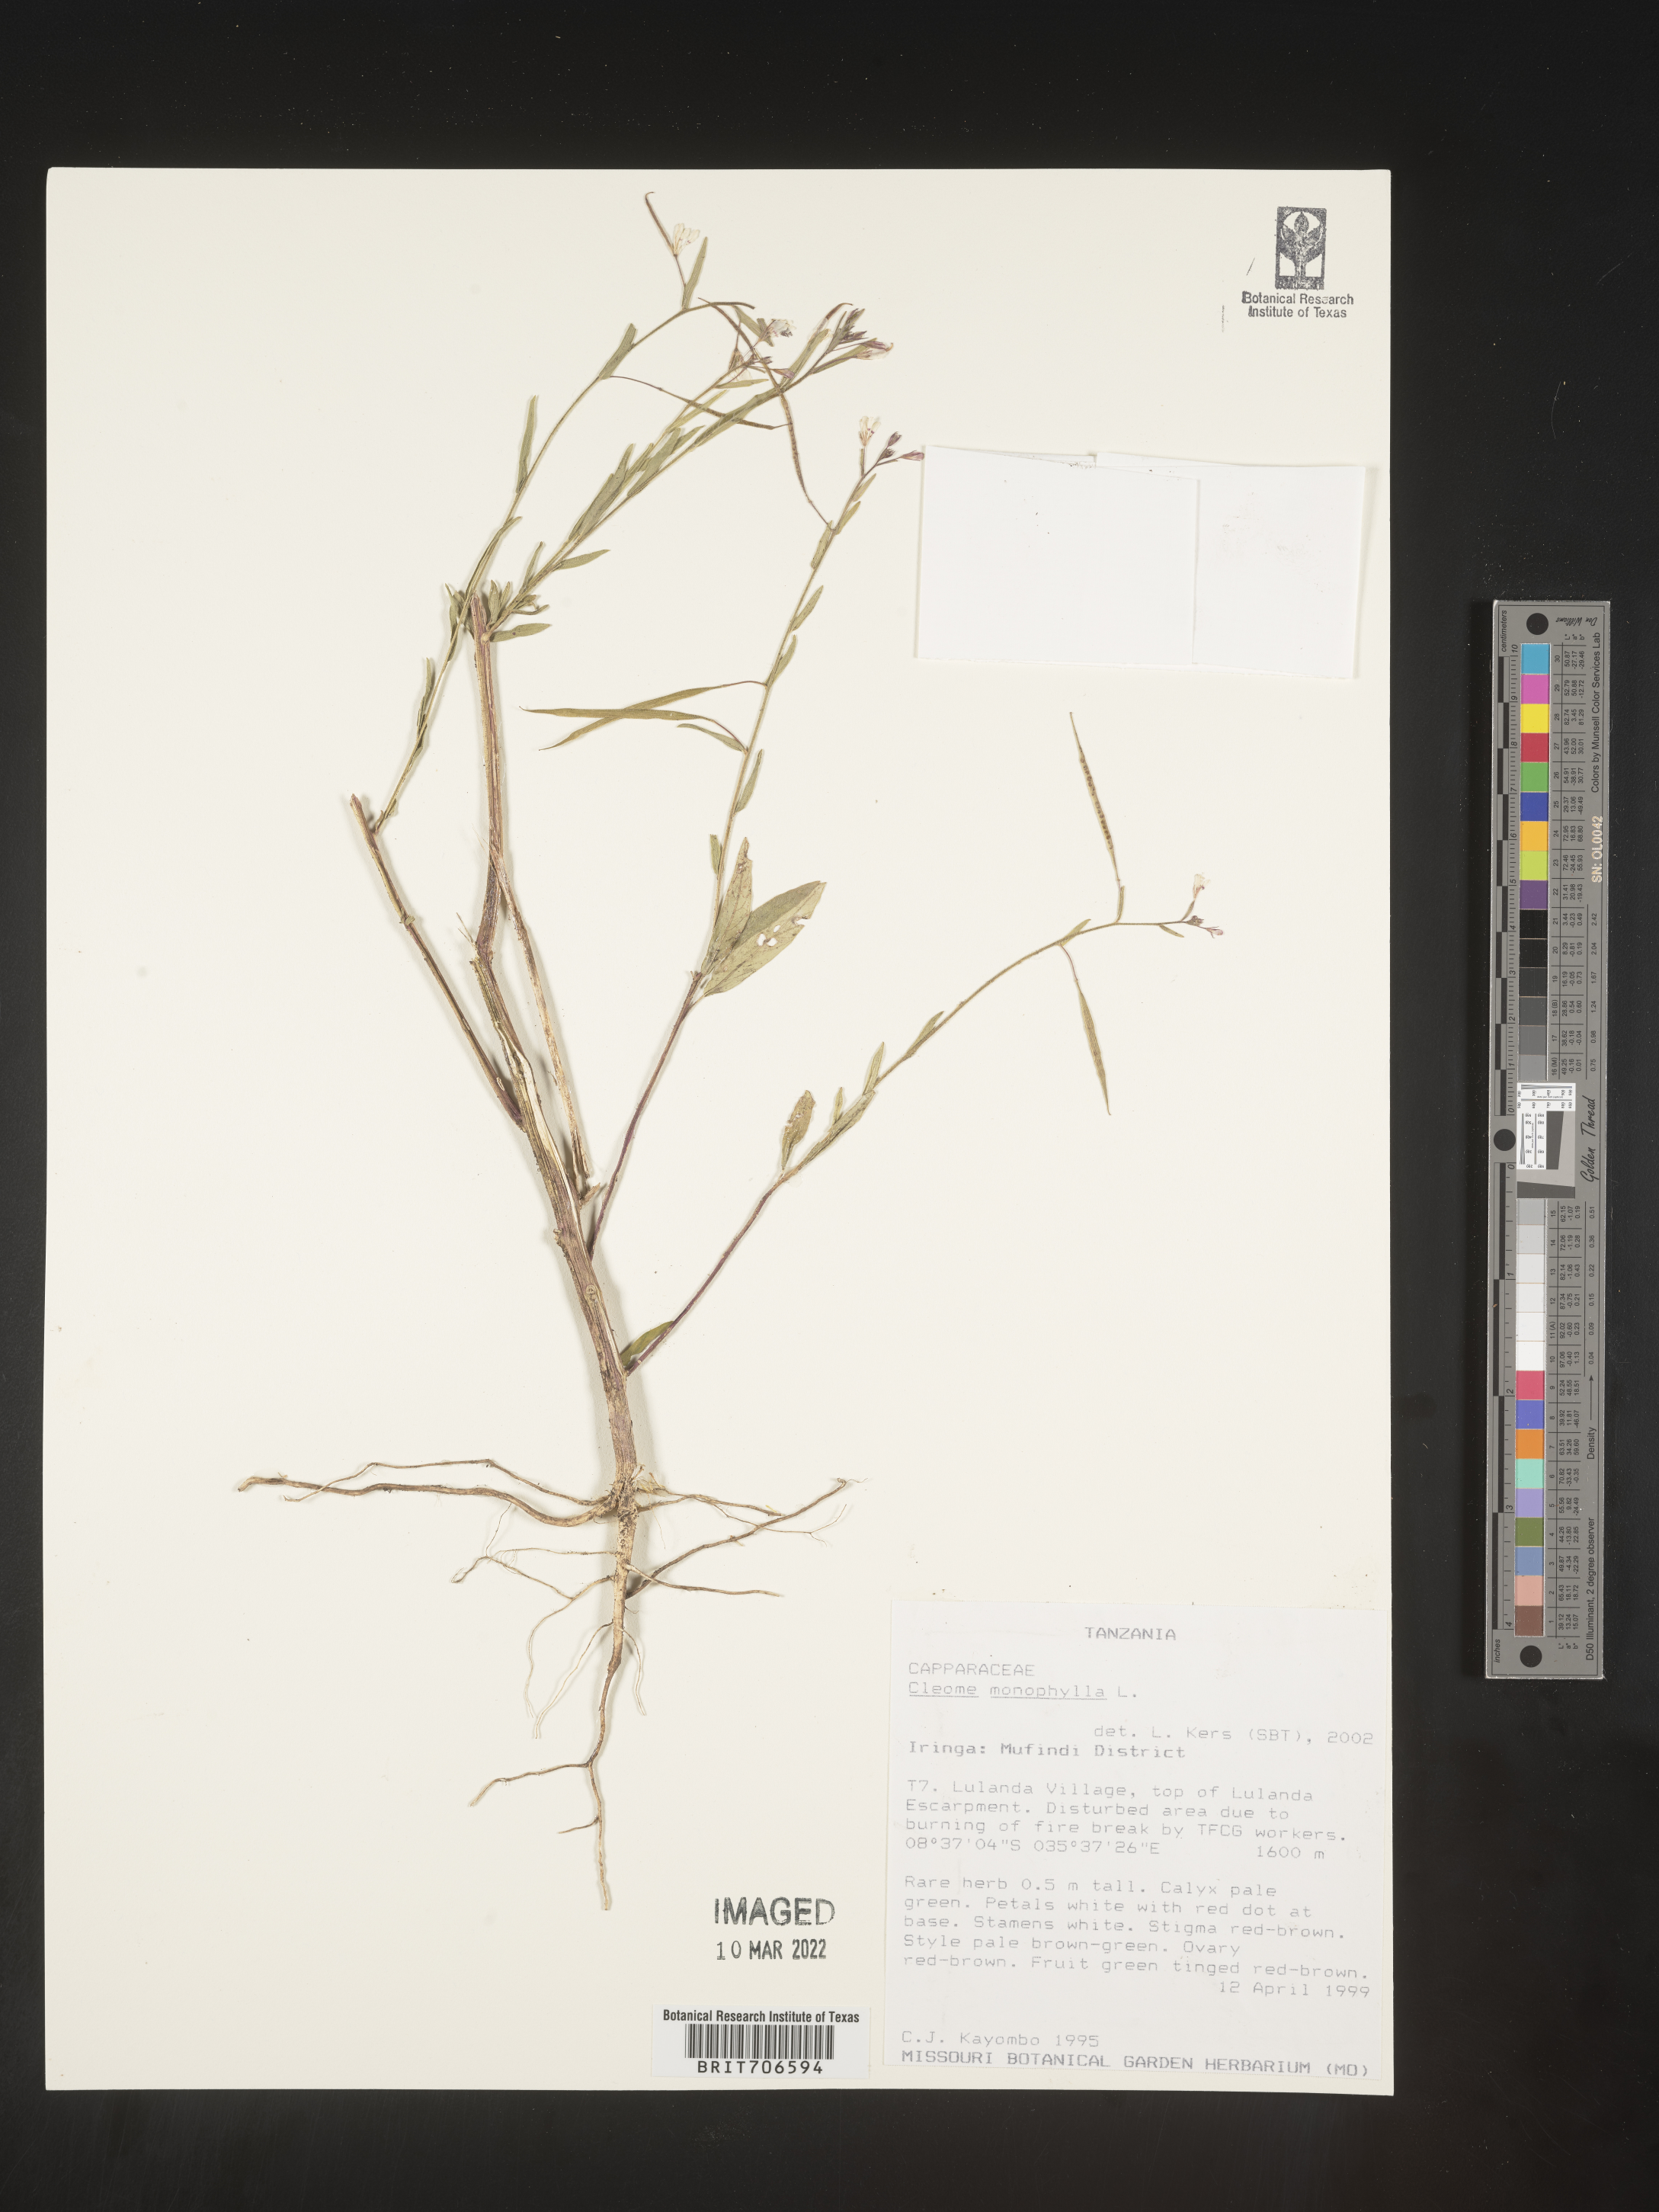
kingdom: Plantae
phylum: Tracheophyta
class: Magnoliopsida
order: Brassicales
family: Cleomaceae
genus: Cleome
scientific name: Cleome
